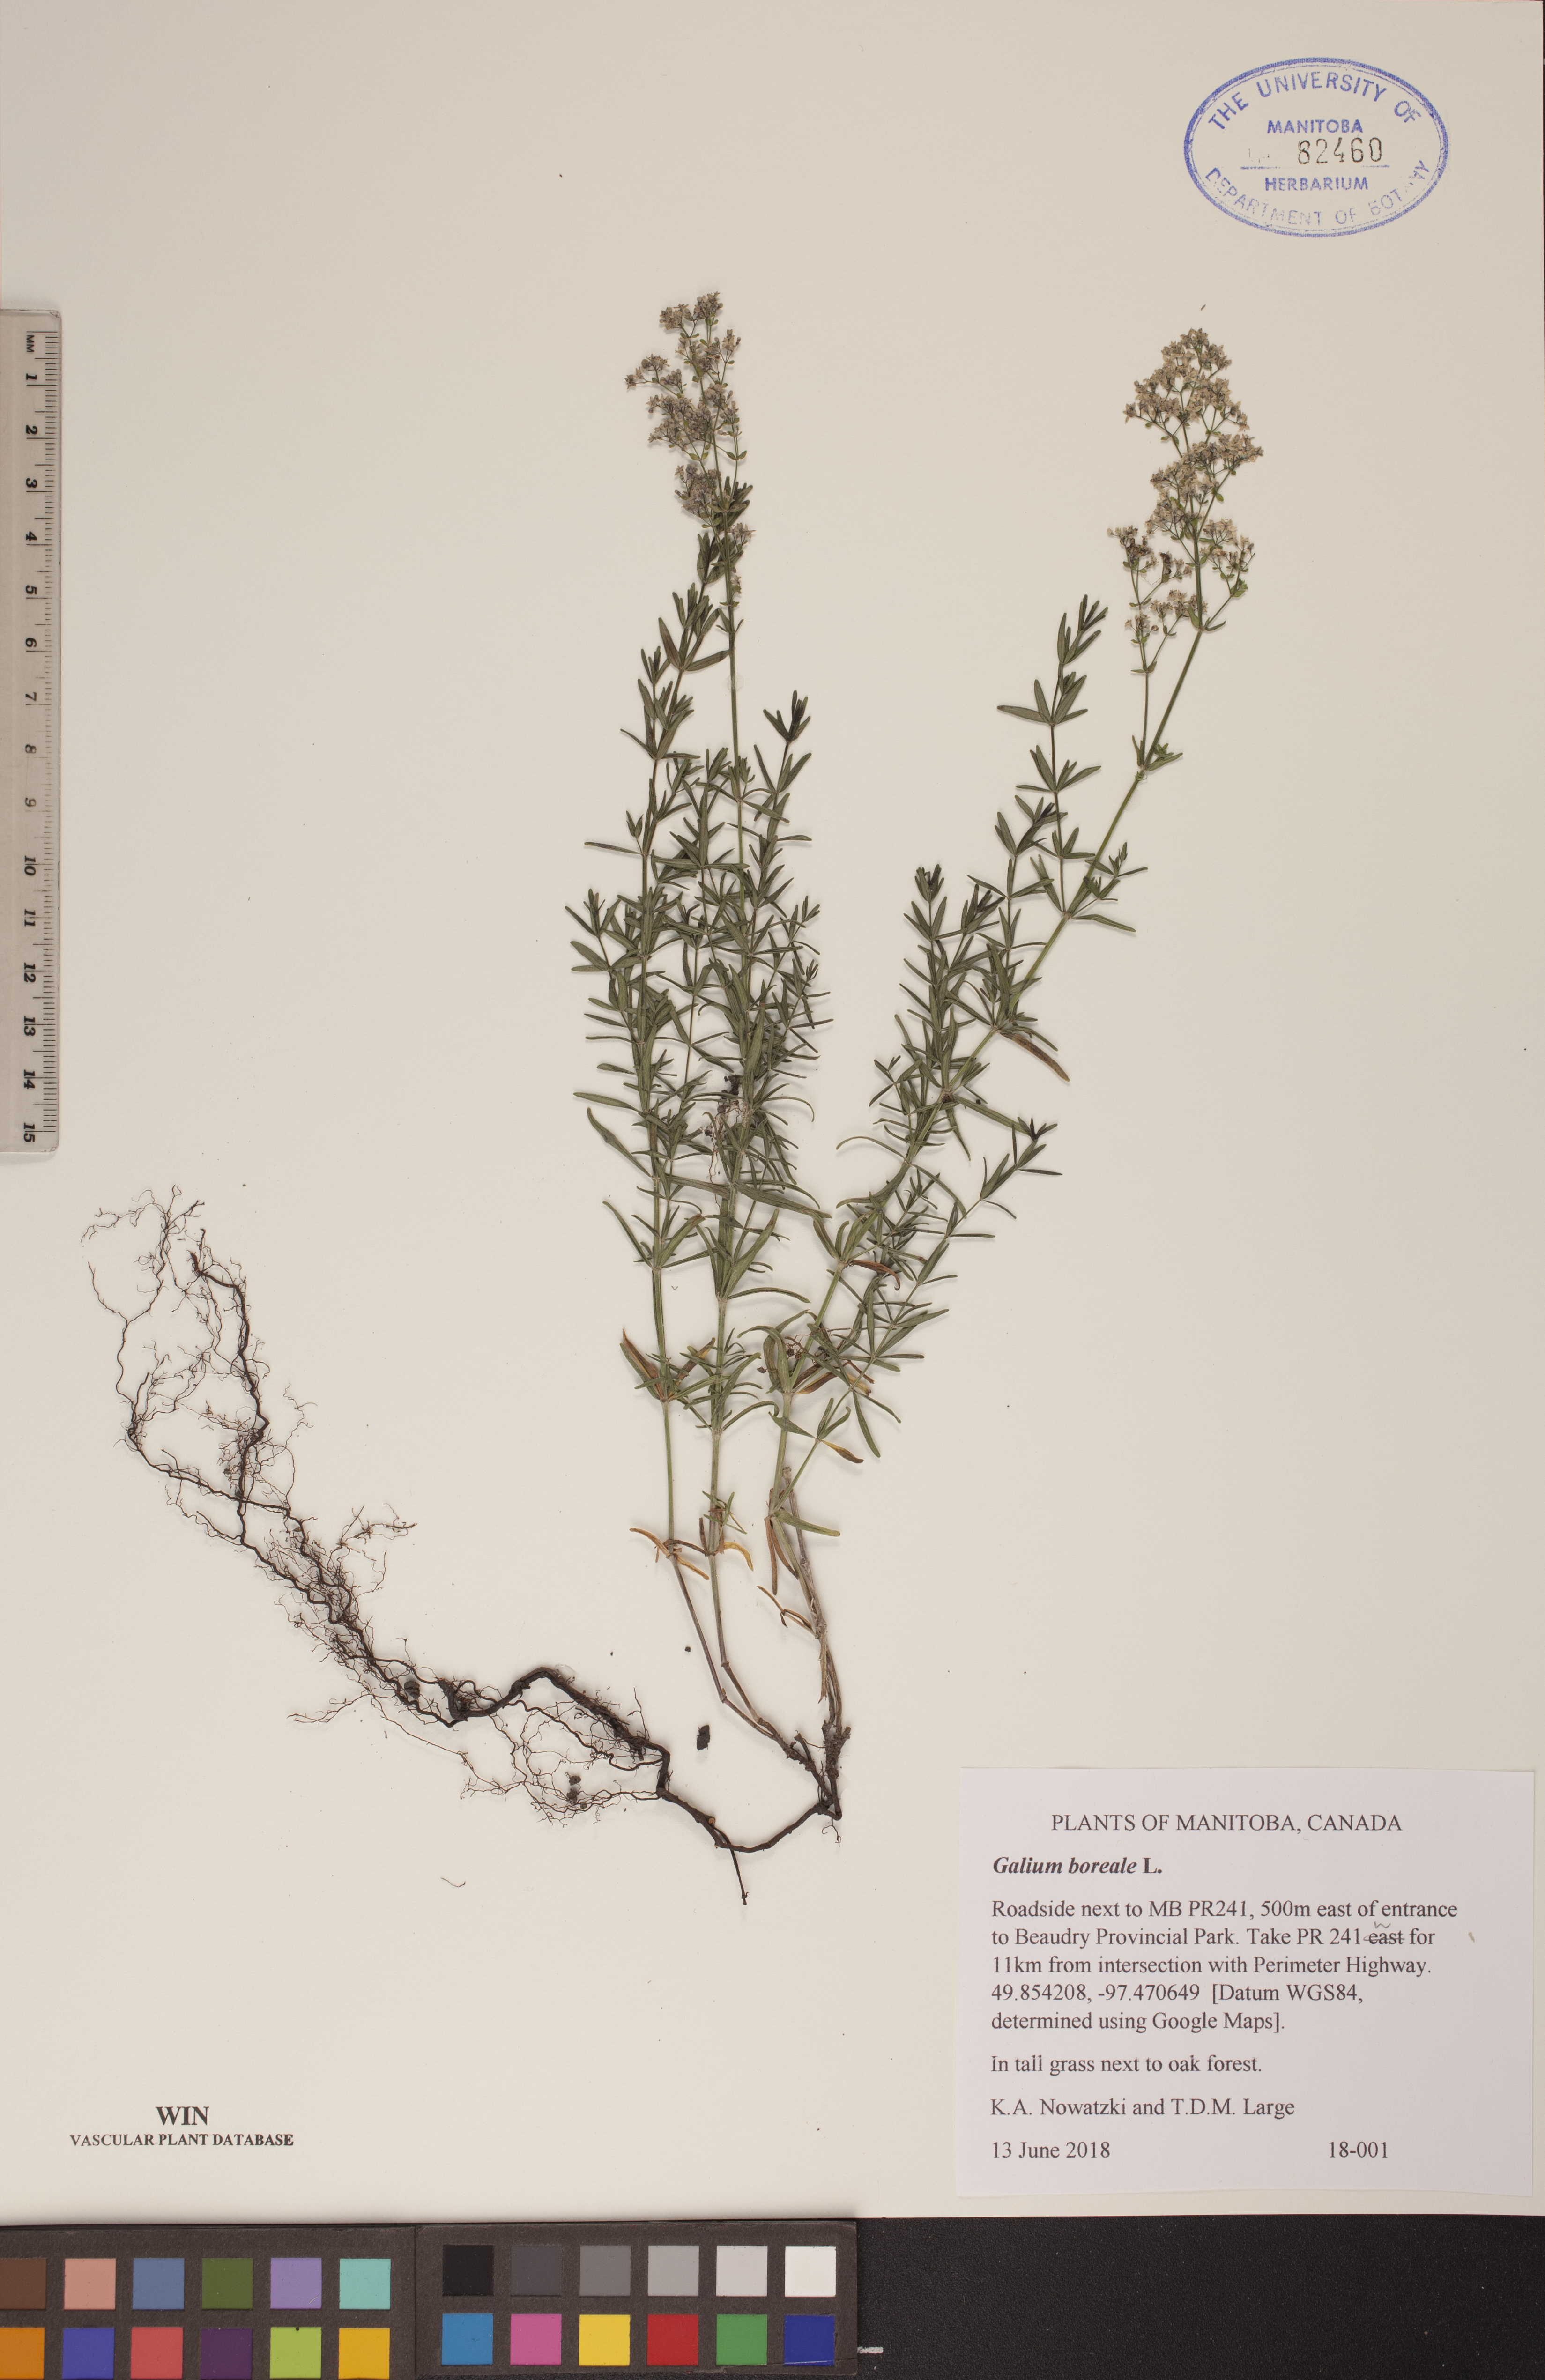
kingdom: Plantae
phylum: Tracheophyta
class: Magnoliopsida
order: Gentianales
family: Rubiaceae
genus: Galium
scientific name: Galium boreale
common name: Northern bedstraw
